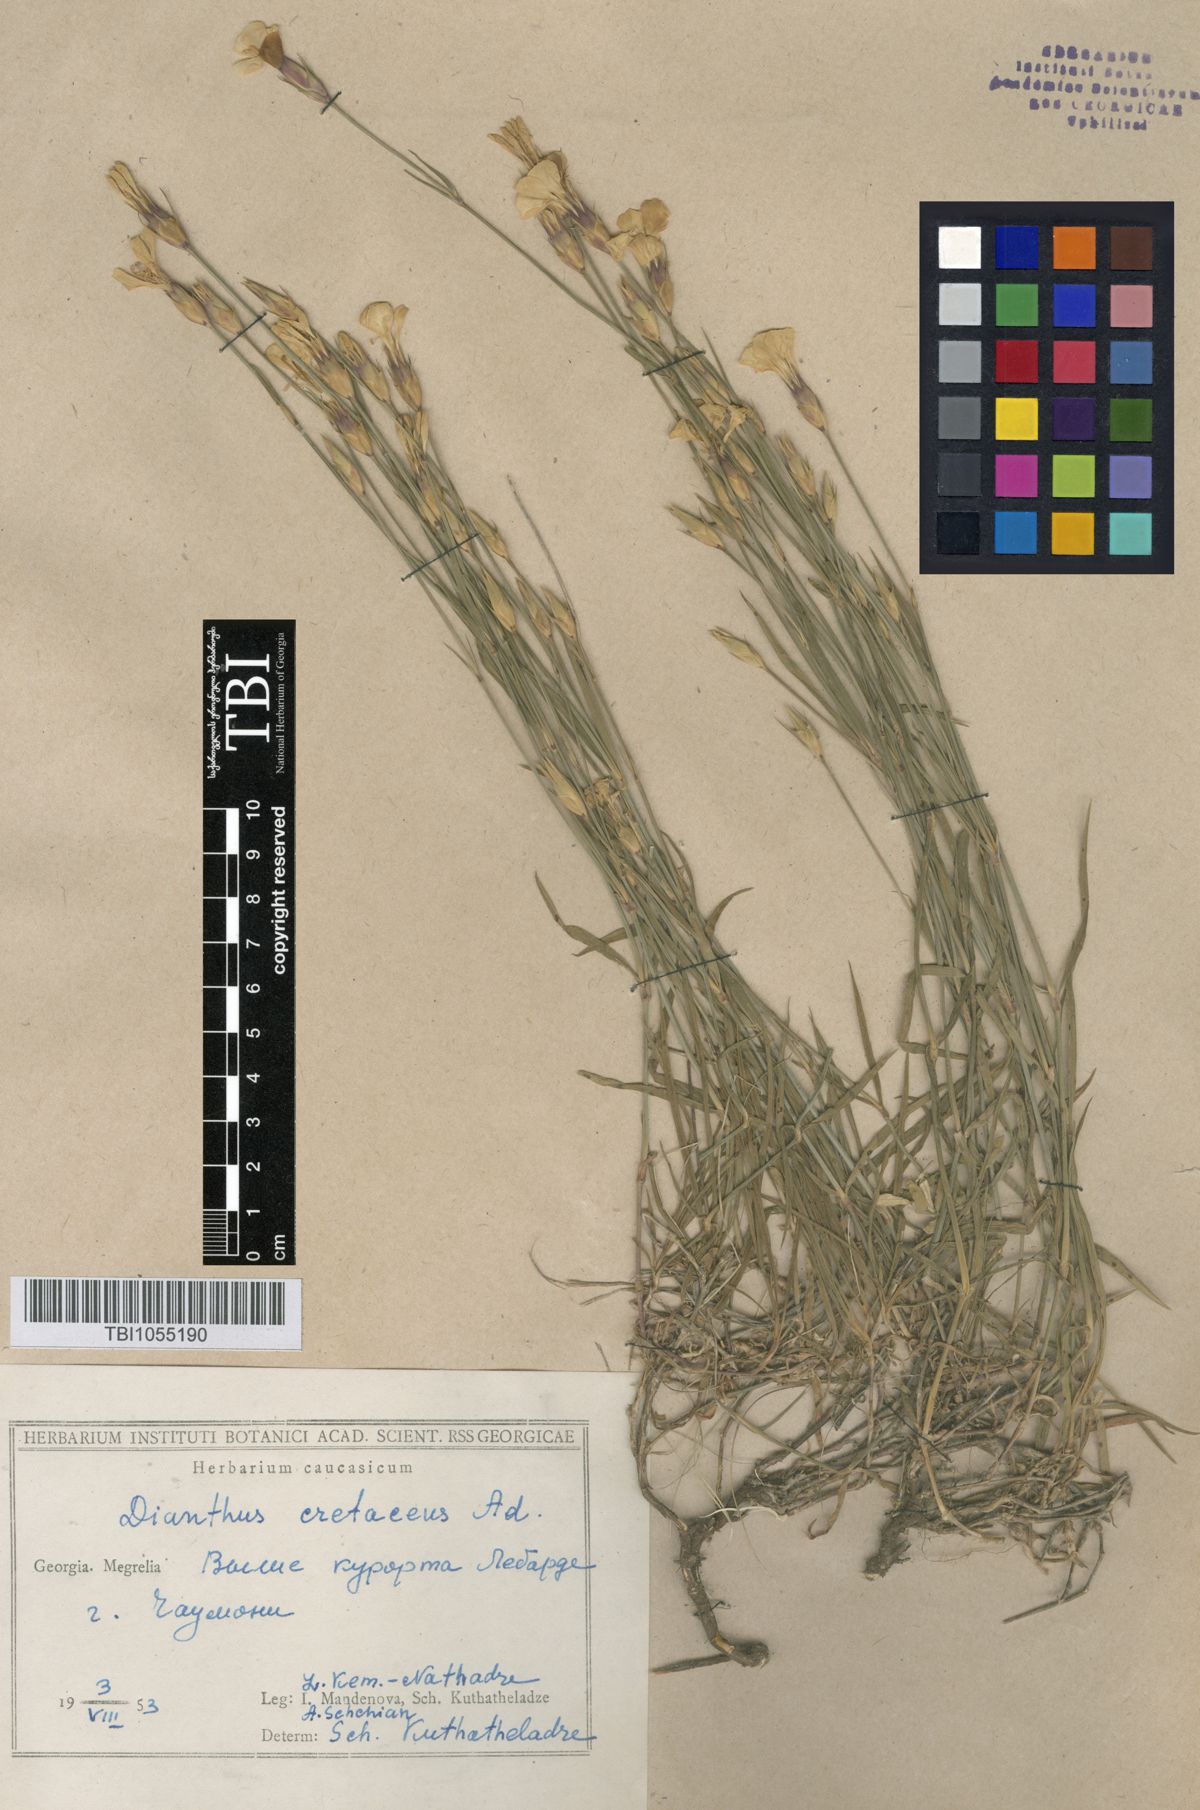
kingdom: Plantae
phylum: Tracheophyta
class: Magnoliopsida
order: Caryophyllales
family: Caryophyllaceae
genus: Dianthus
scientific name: Dianthus cretaceus
